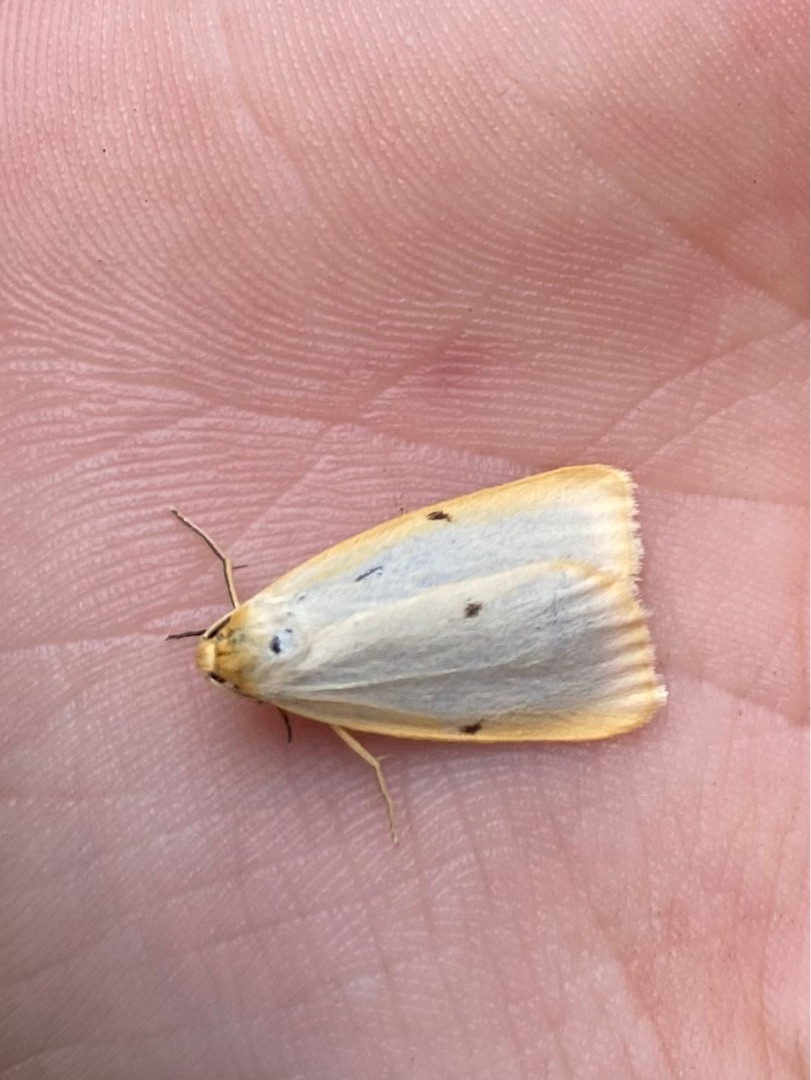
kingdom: Animalia
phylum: Arthropoda
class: Insecta
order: Lepidoptera
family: Erebidae
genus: Cybosia
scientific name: Cybosia mesomella
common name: Dag-lavspinder
